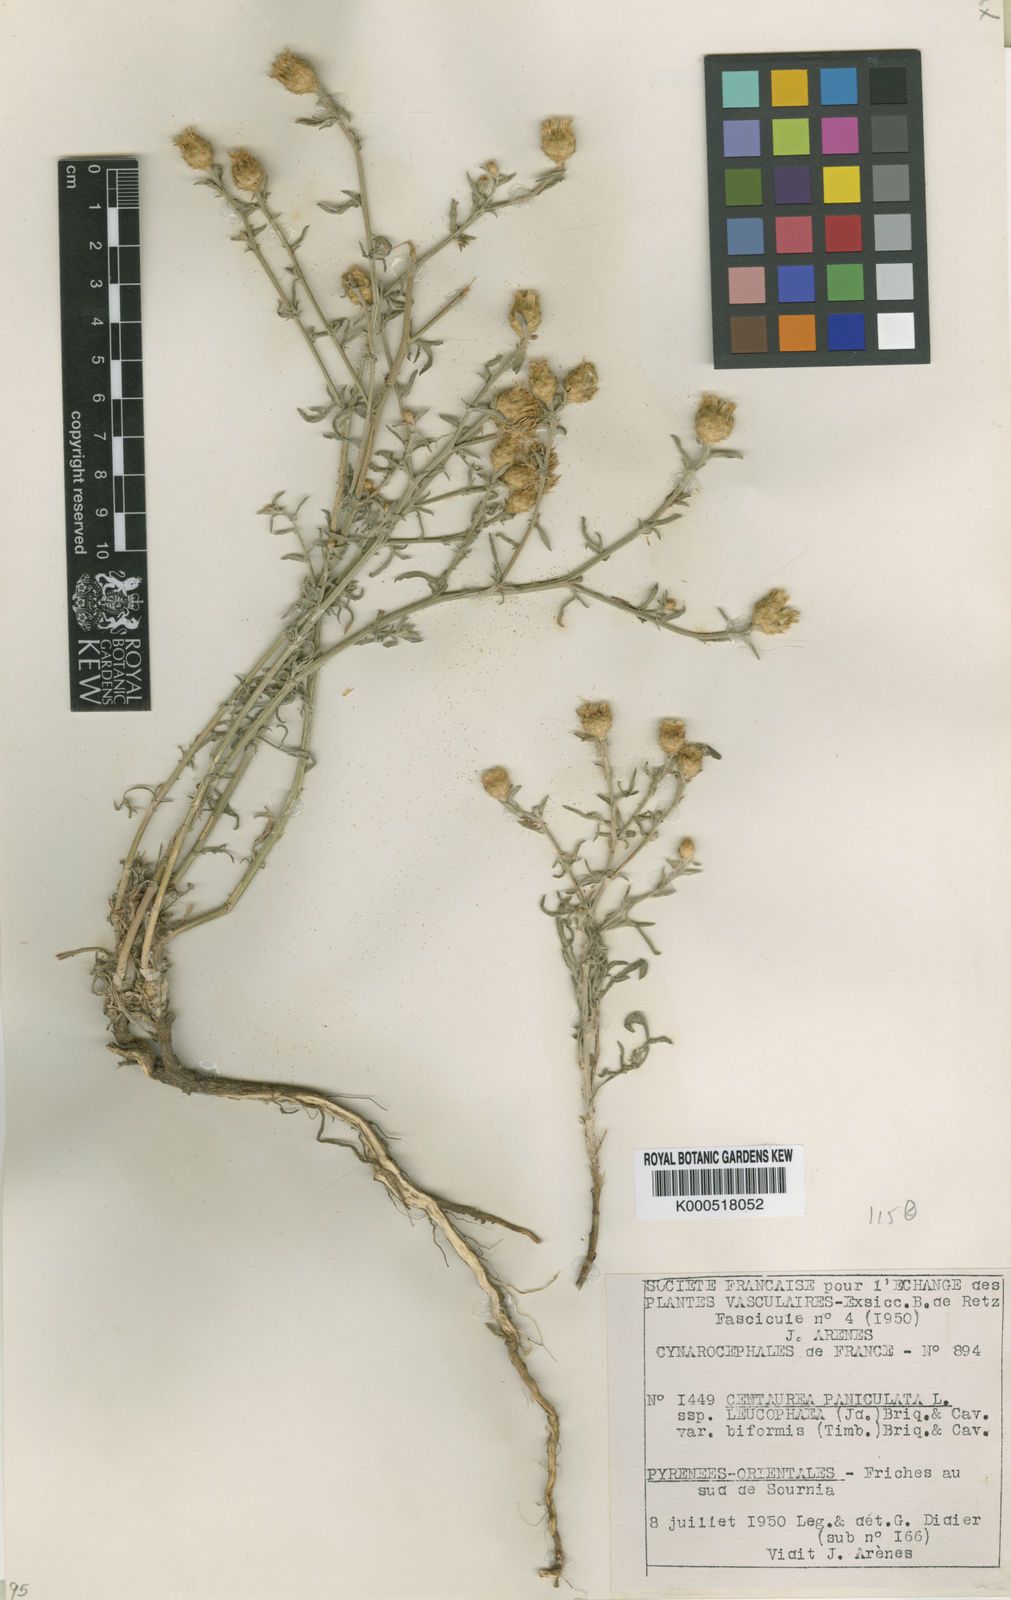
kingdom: Plantae
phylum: Tracheophyta
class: Magnoliopsida
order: Asterales
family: Asteraceae
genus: Centaurea
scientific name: Centaurea leucophaea
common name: Whitish-leaved knapweed
